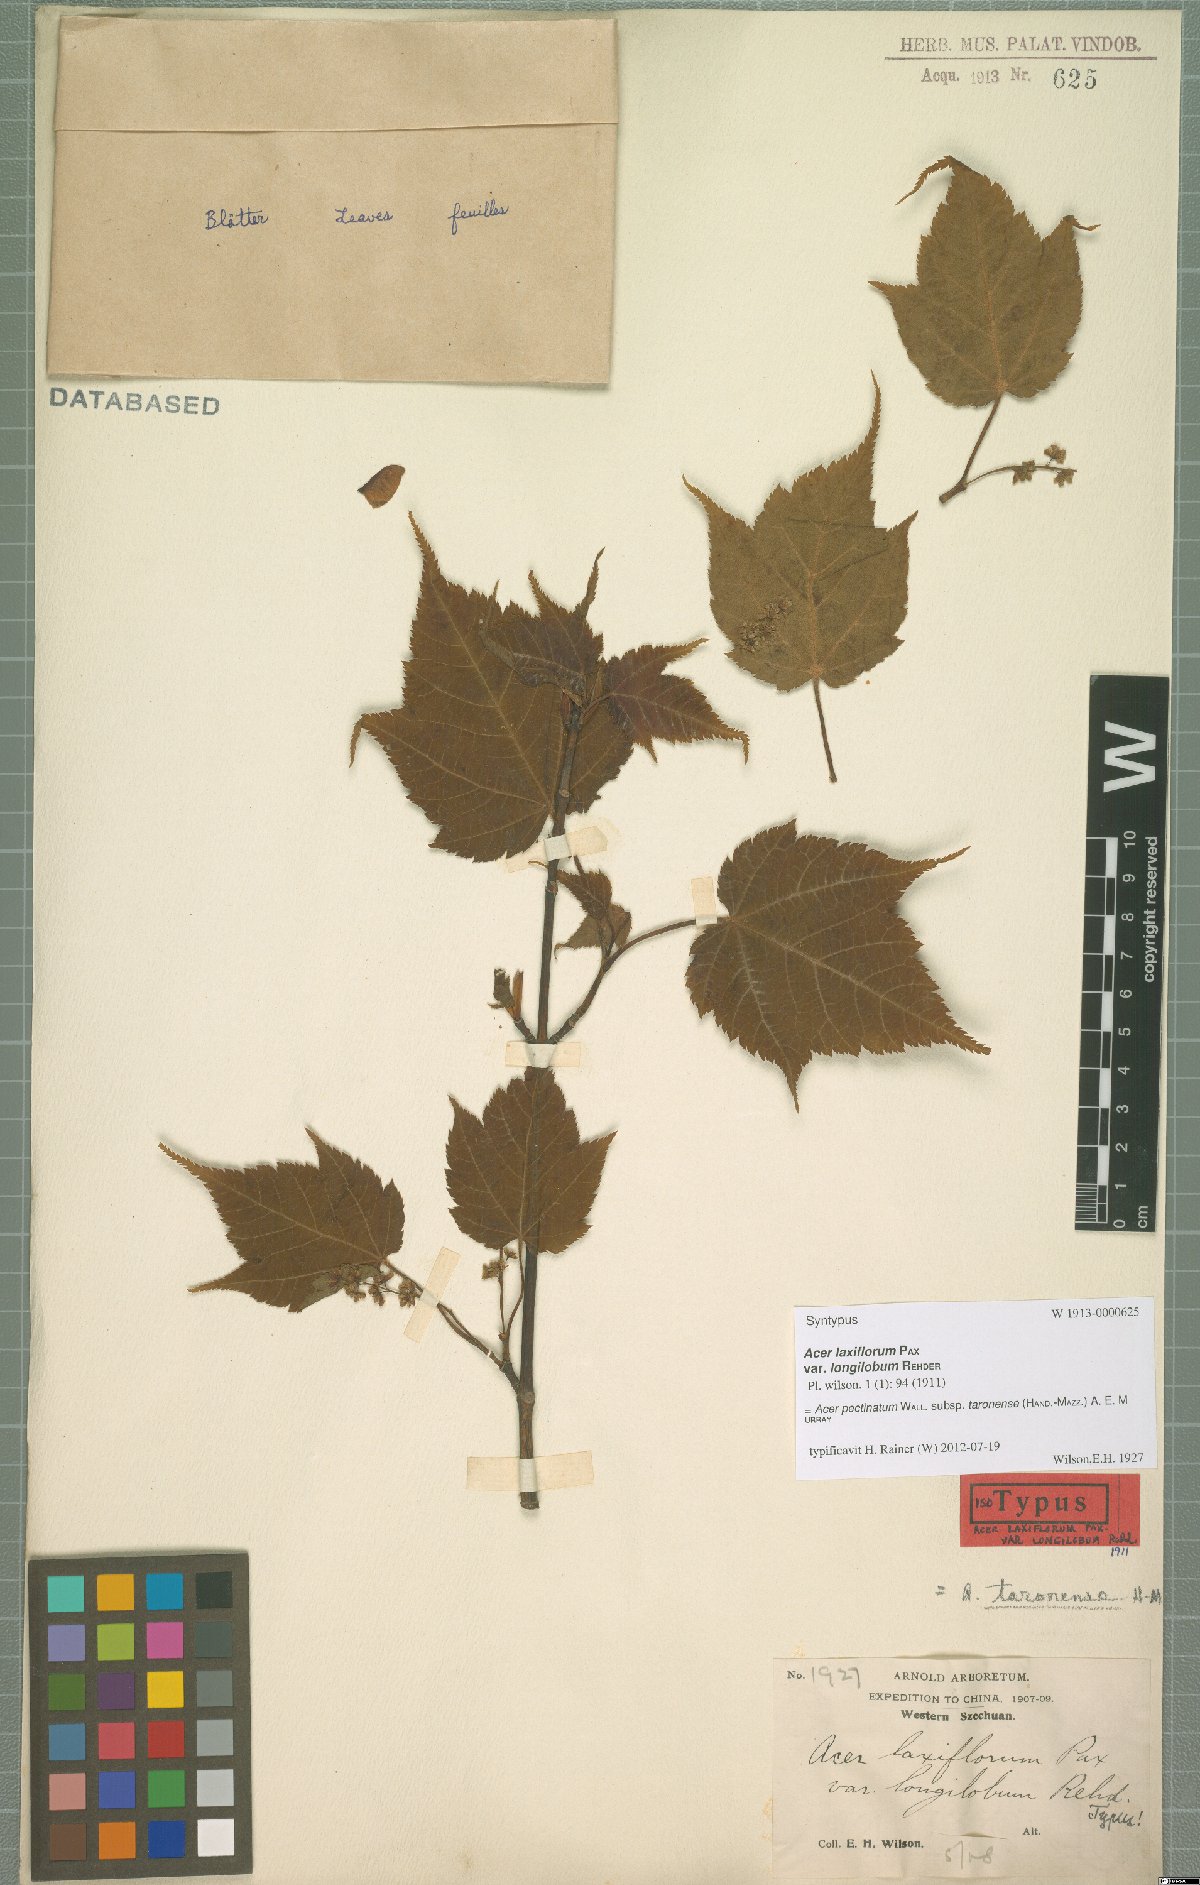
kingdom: Plantae
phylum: Tracheophyta
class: Magnoliopsida
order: Sapindales
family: Sapindaceae
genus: Acer
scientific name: Acer pectinatum
